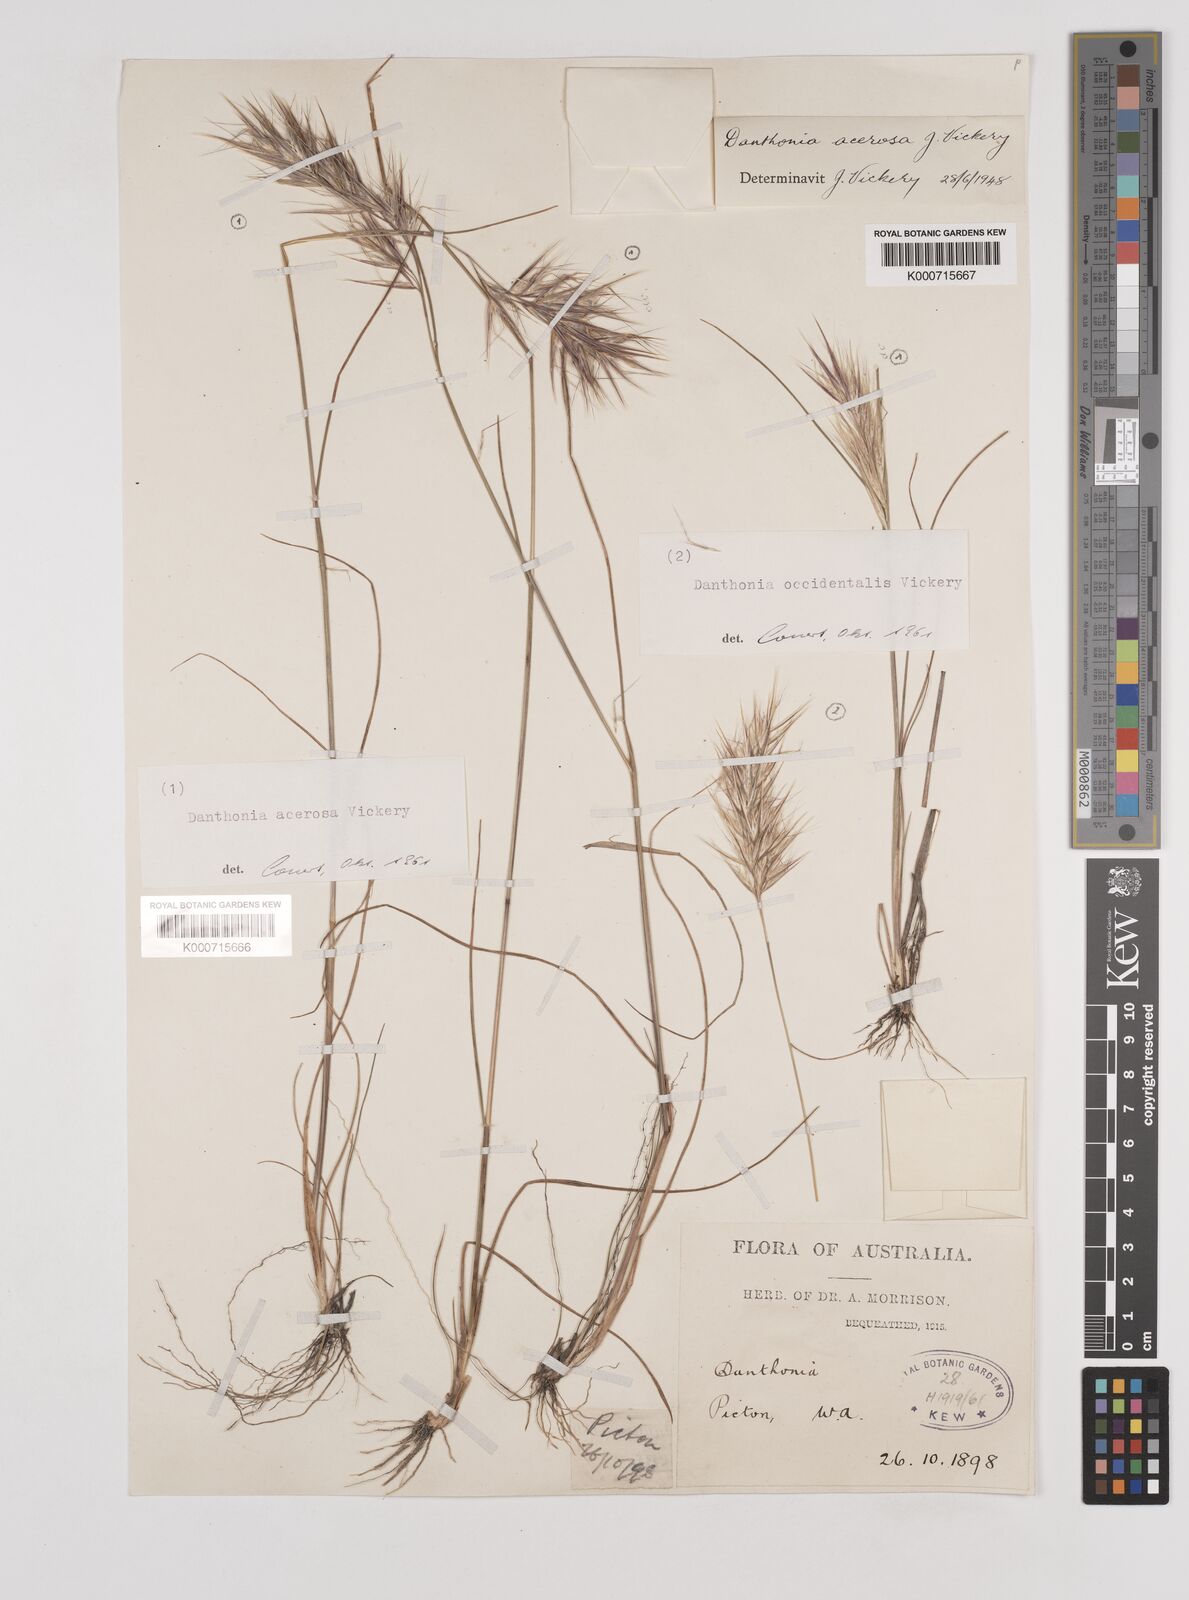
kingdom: Plantae
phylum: Tracheophyta
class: Liliopsida
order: Poales
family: Poaceae
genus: Rytidosperma
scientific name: Rytidosperma acerosum
